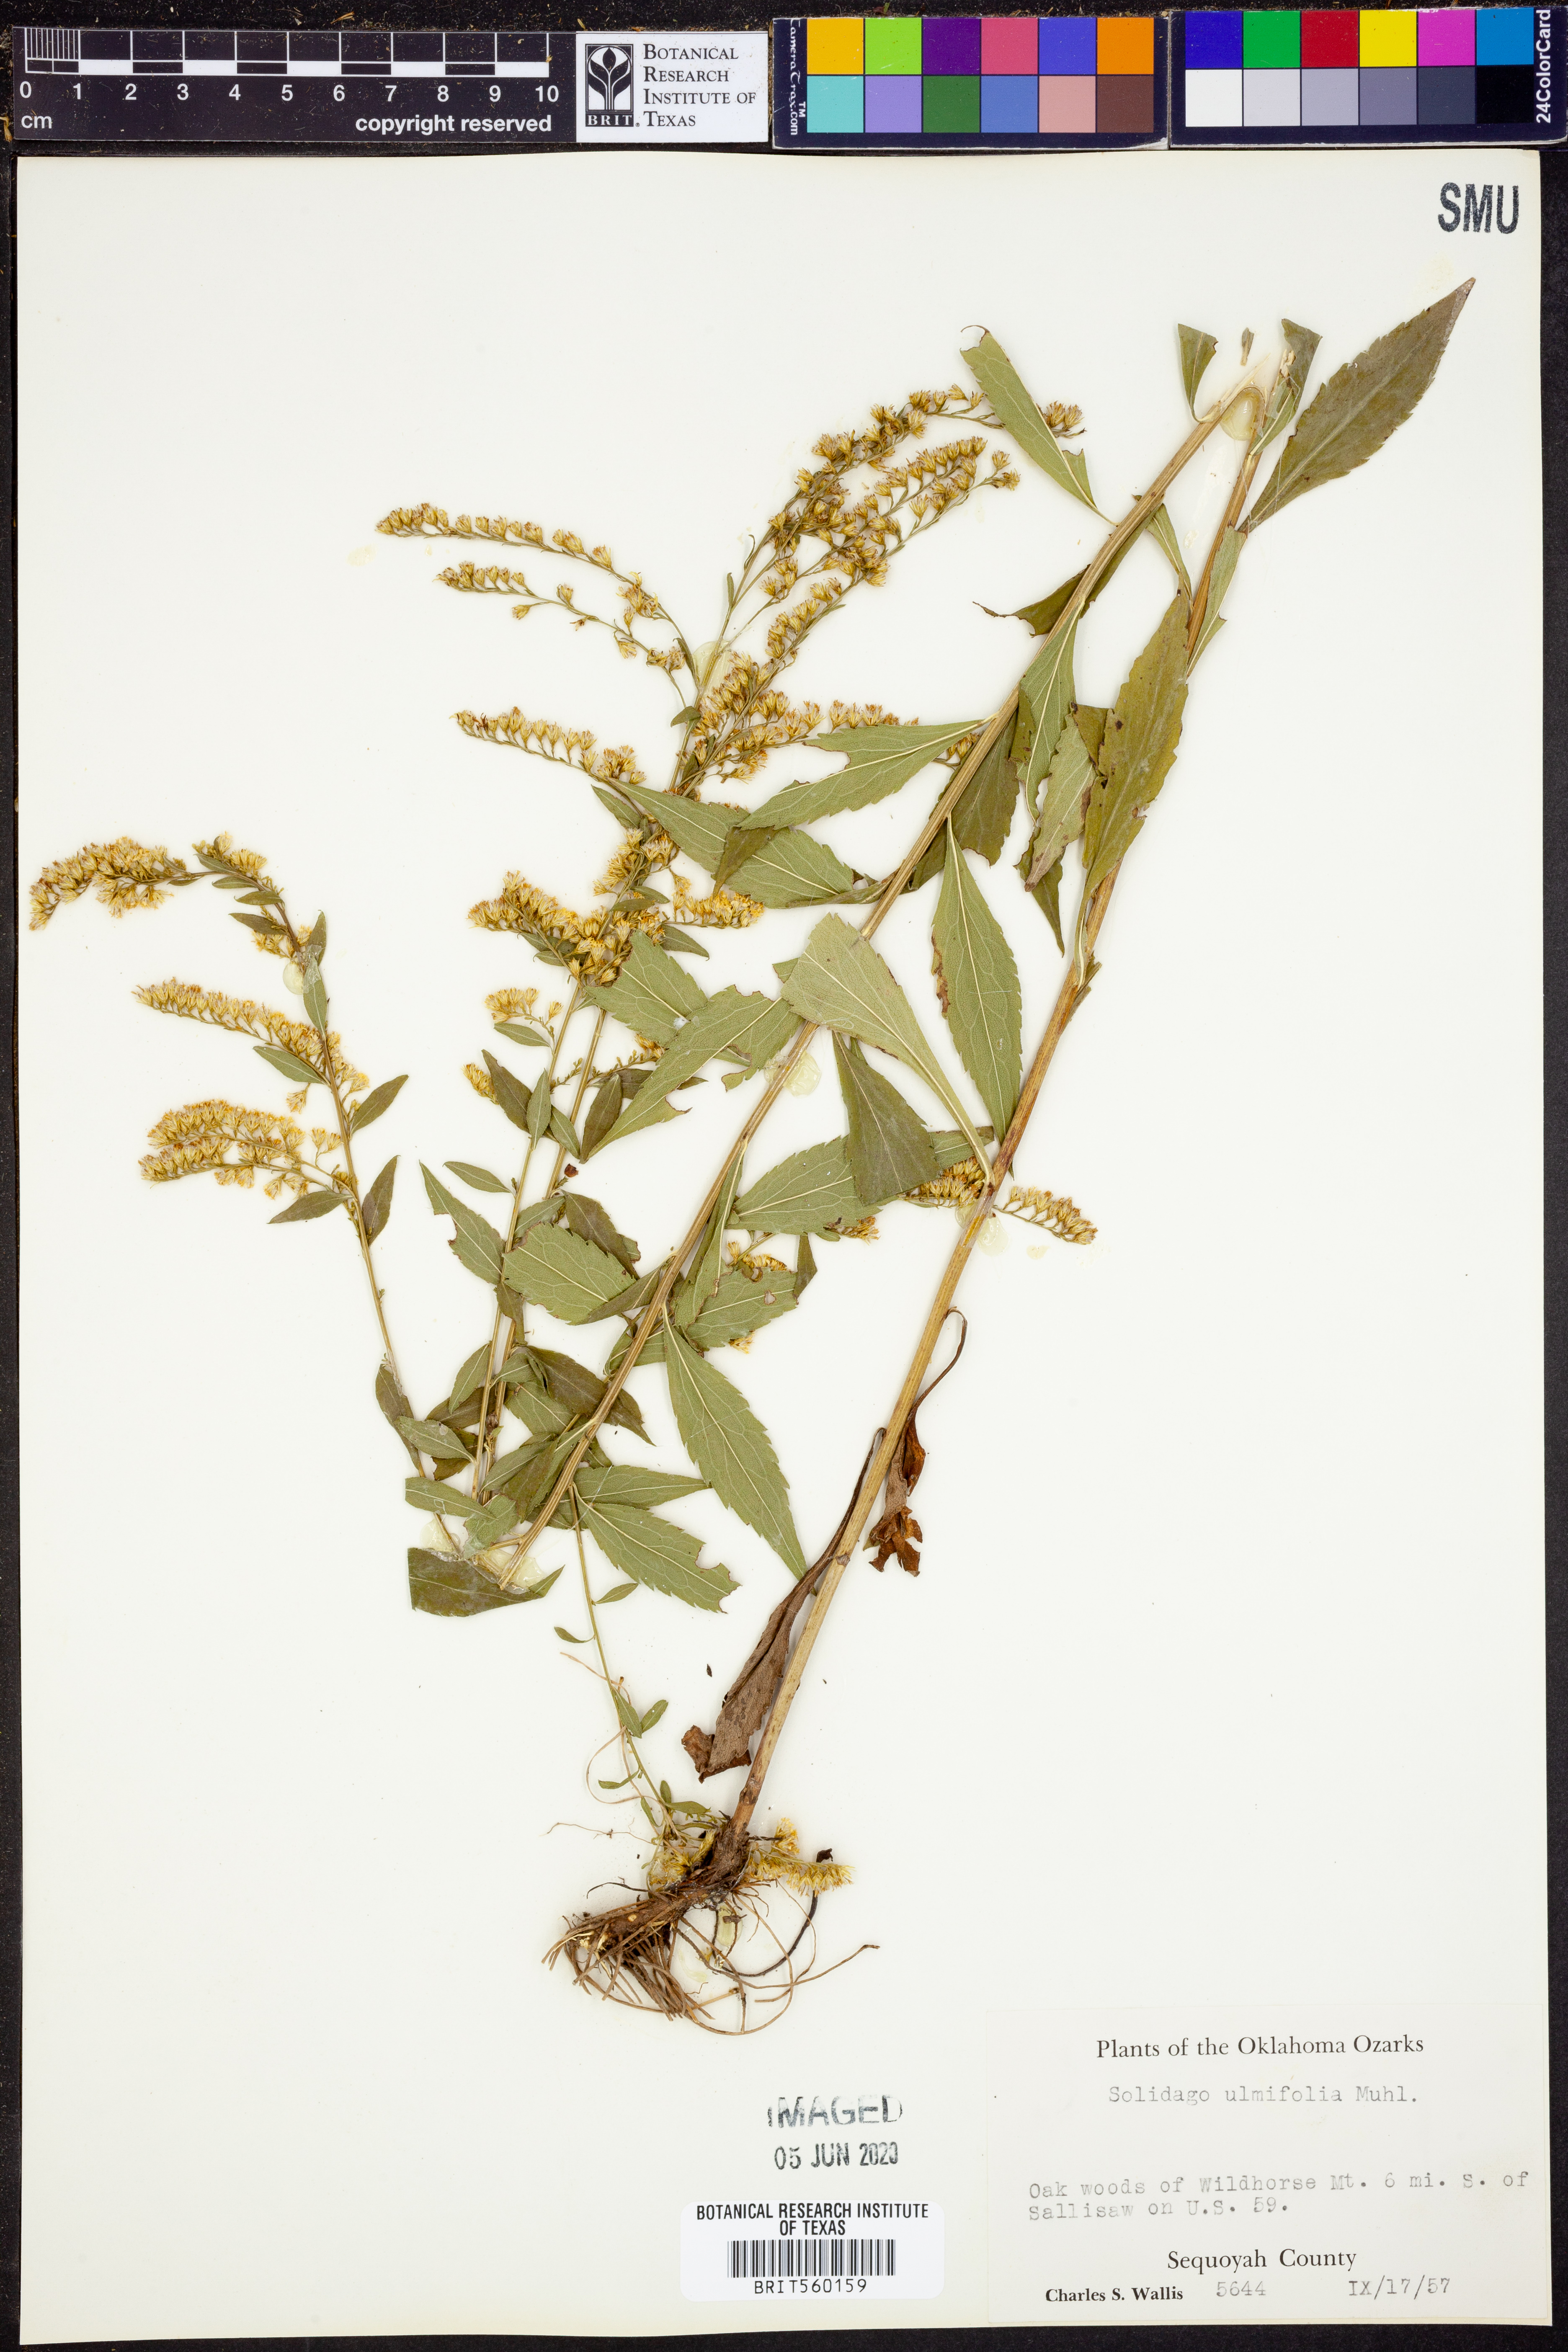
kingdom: Plantae
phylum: Tracheophyta
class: Magnoliopsida
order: Asterales
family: Asteraceae
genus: Solidago
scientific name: Solidago ulmifolia
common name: Elm-leaf goldenrod
